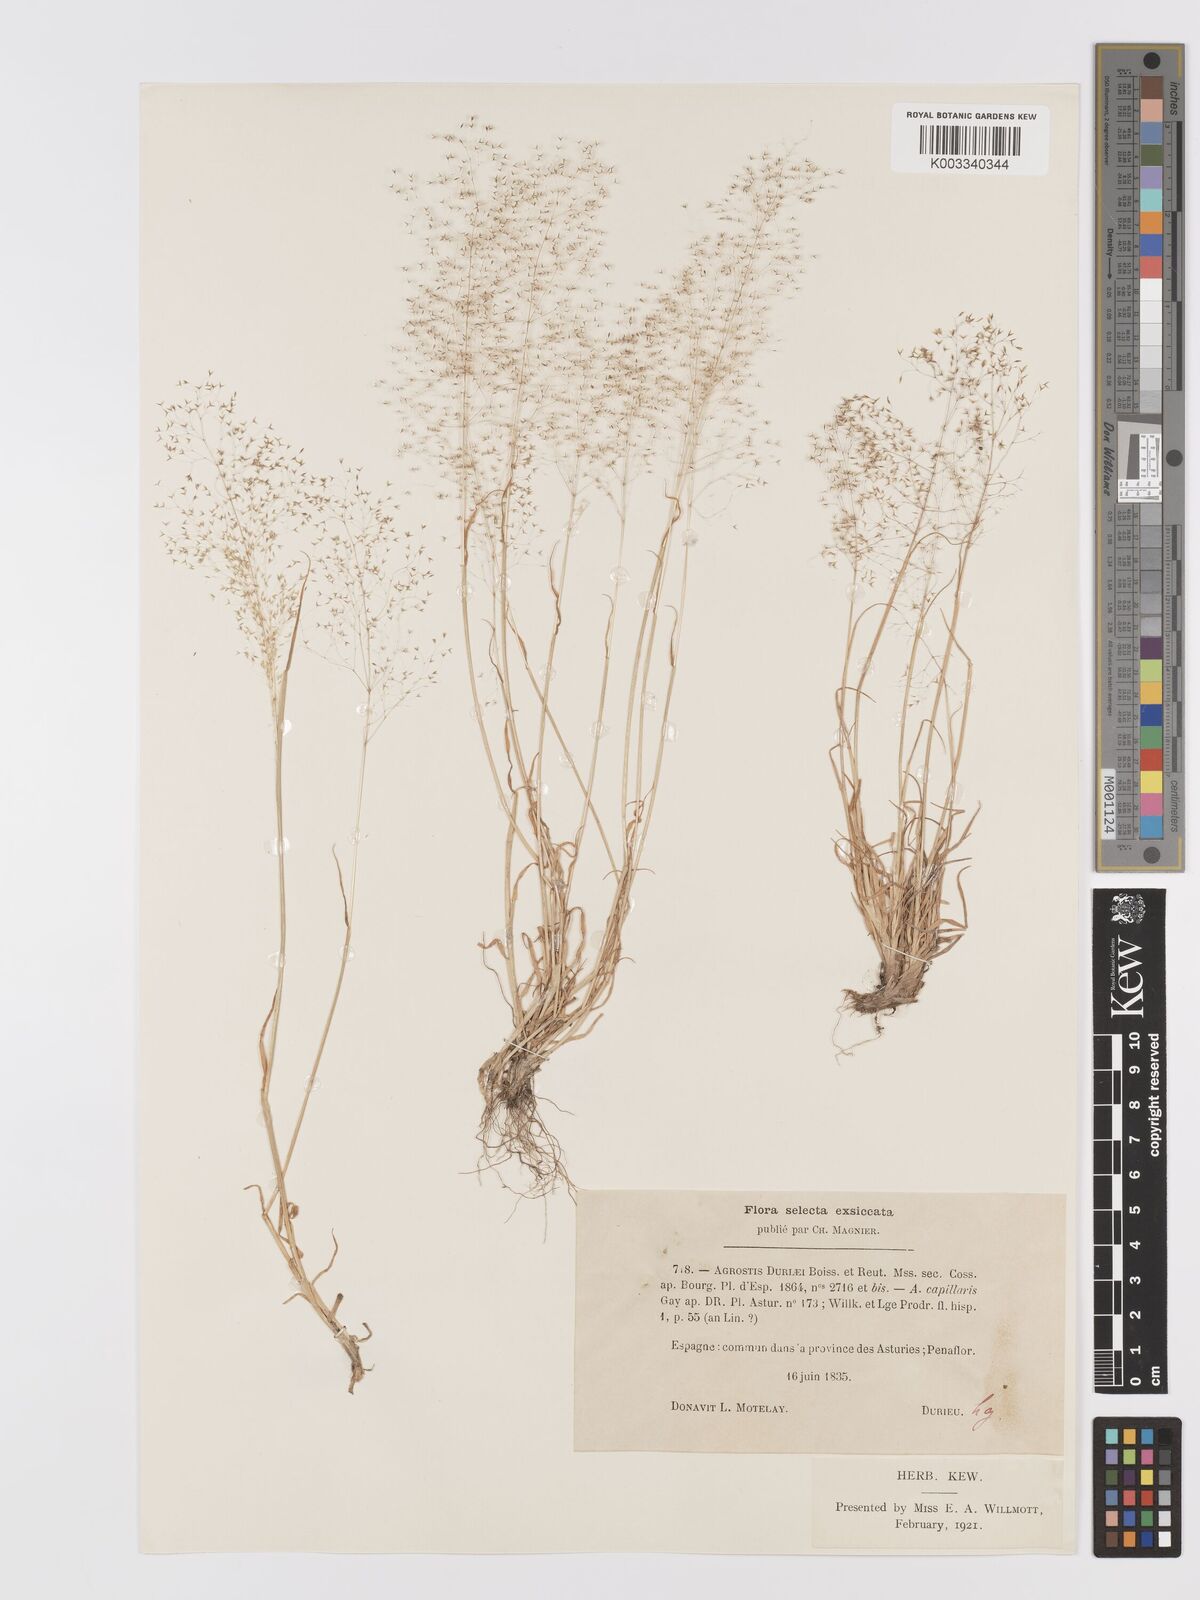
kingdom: Plantae
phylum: Tracheophyta
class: Liliopsida
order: Poales
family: Poaceae
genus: Agrostis
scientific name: Agrostis nebulosa
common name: Cloud grass
